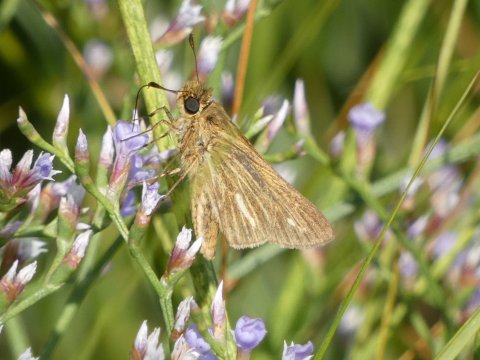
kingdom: Animalia
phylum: Arthropoda
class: Insecta
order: Lepidoptera
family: Hesperiidae
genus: Panoquina
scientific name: Panoquina panoquin
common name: Salt Marsh Skipper
